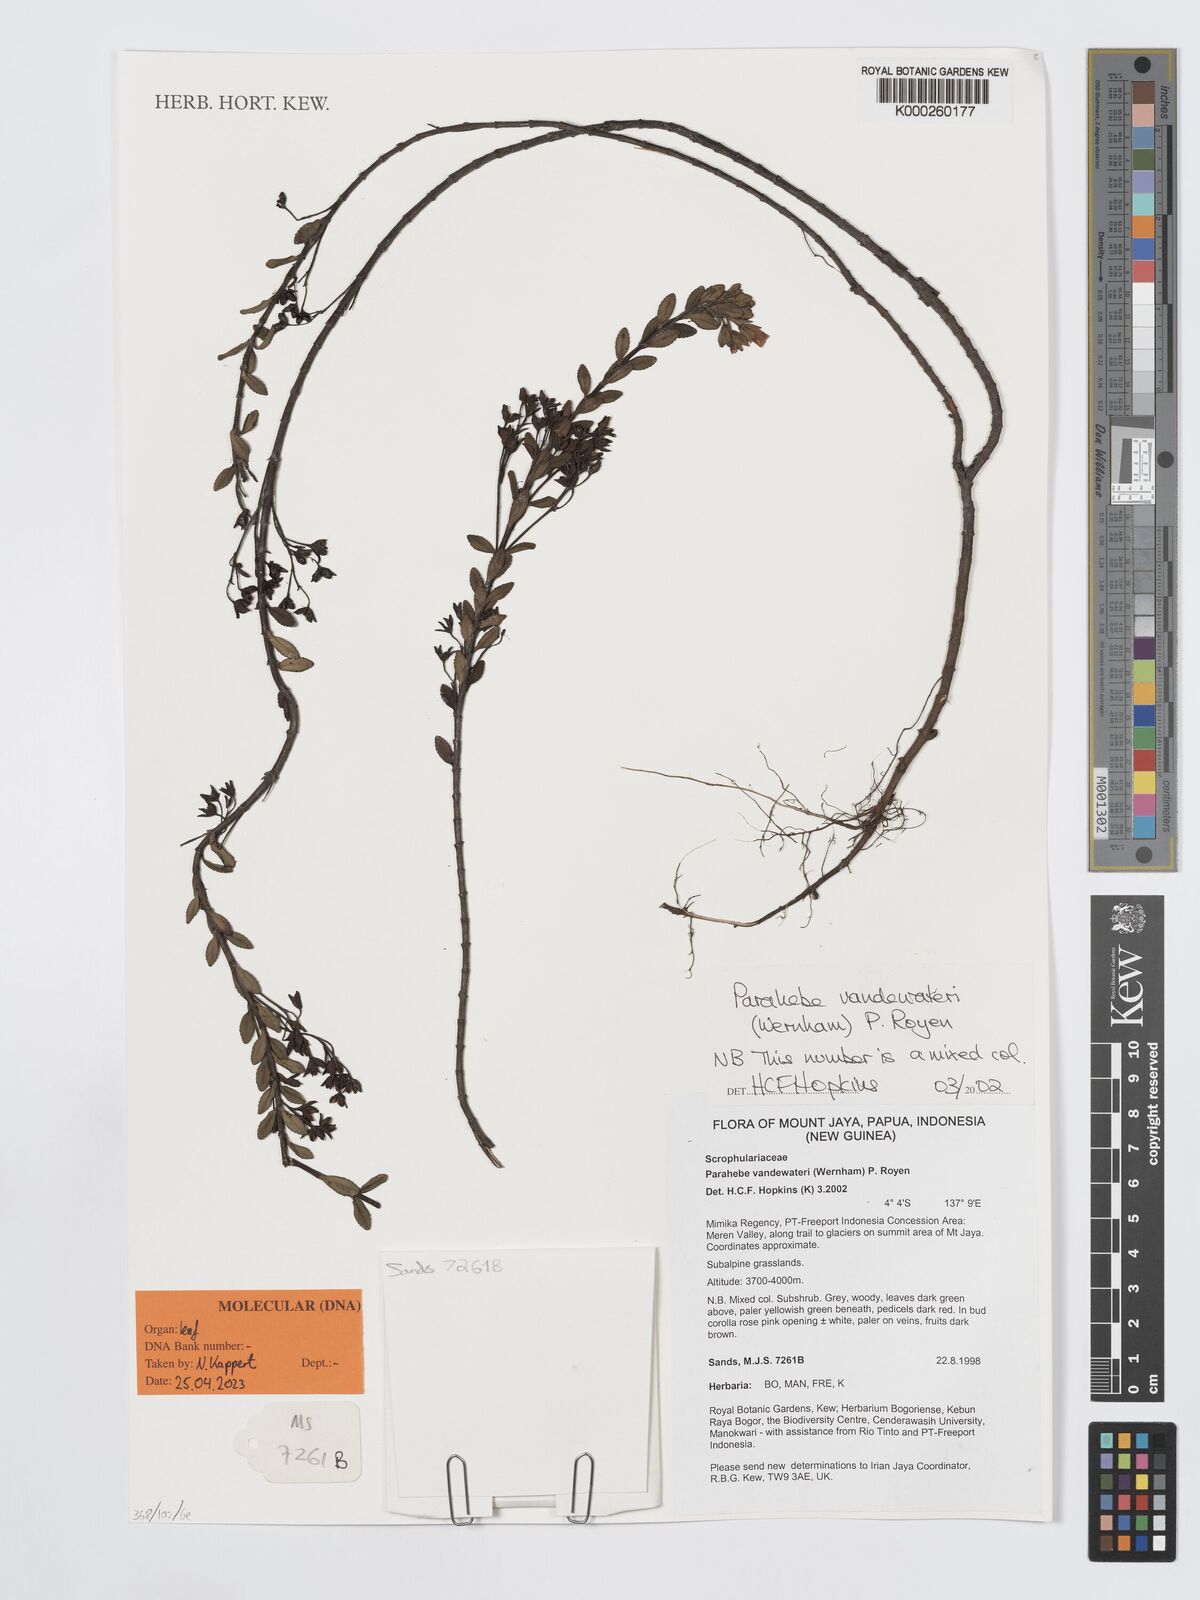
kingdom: Plantae
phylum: Tracheophyta
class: Magnoliopsida
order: Lamiales
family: Plantaginaceae
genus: Veronica
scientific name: Veronica vandewateri
